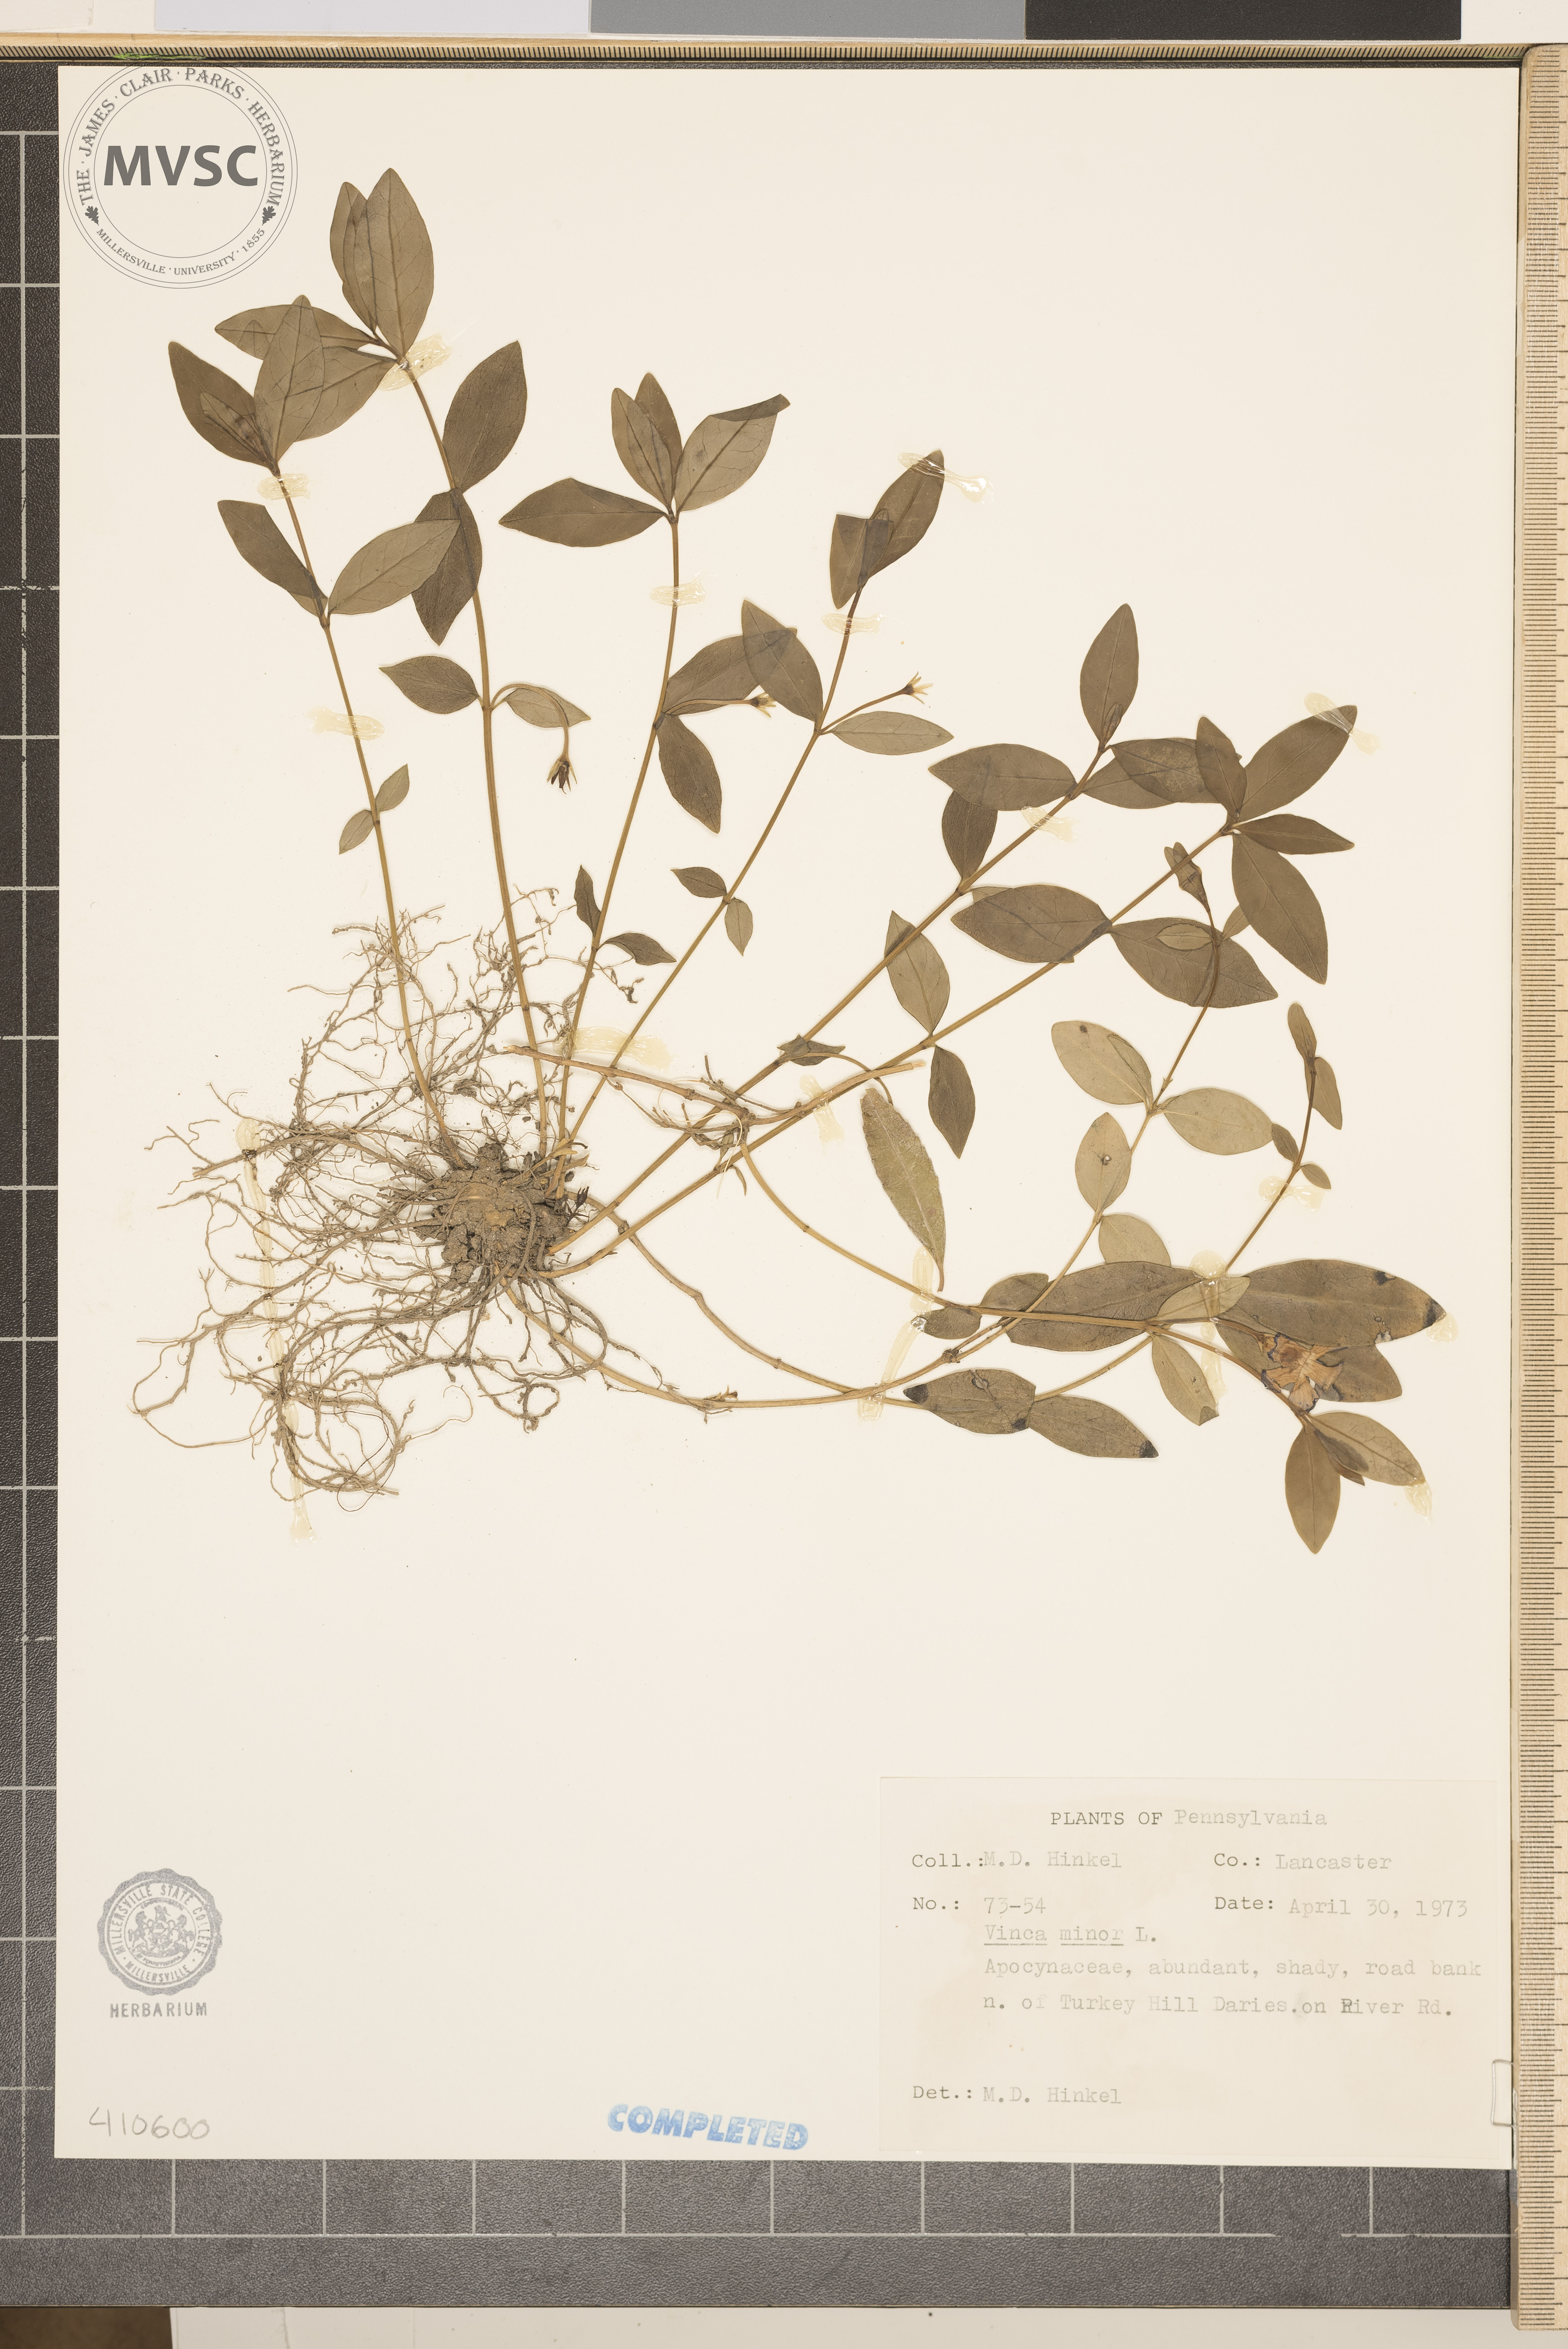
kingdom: Plantae
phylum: Tracheophyta
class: Magnoliopsida
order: Gentianales
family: Apocynaceae
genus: Vinca
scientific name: Vinca minor
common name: Lesser periwinkle
